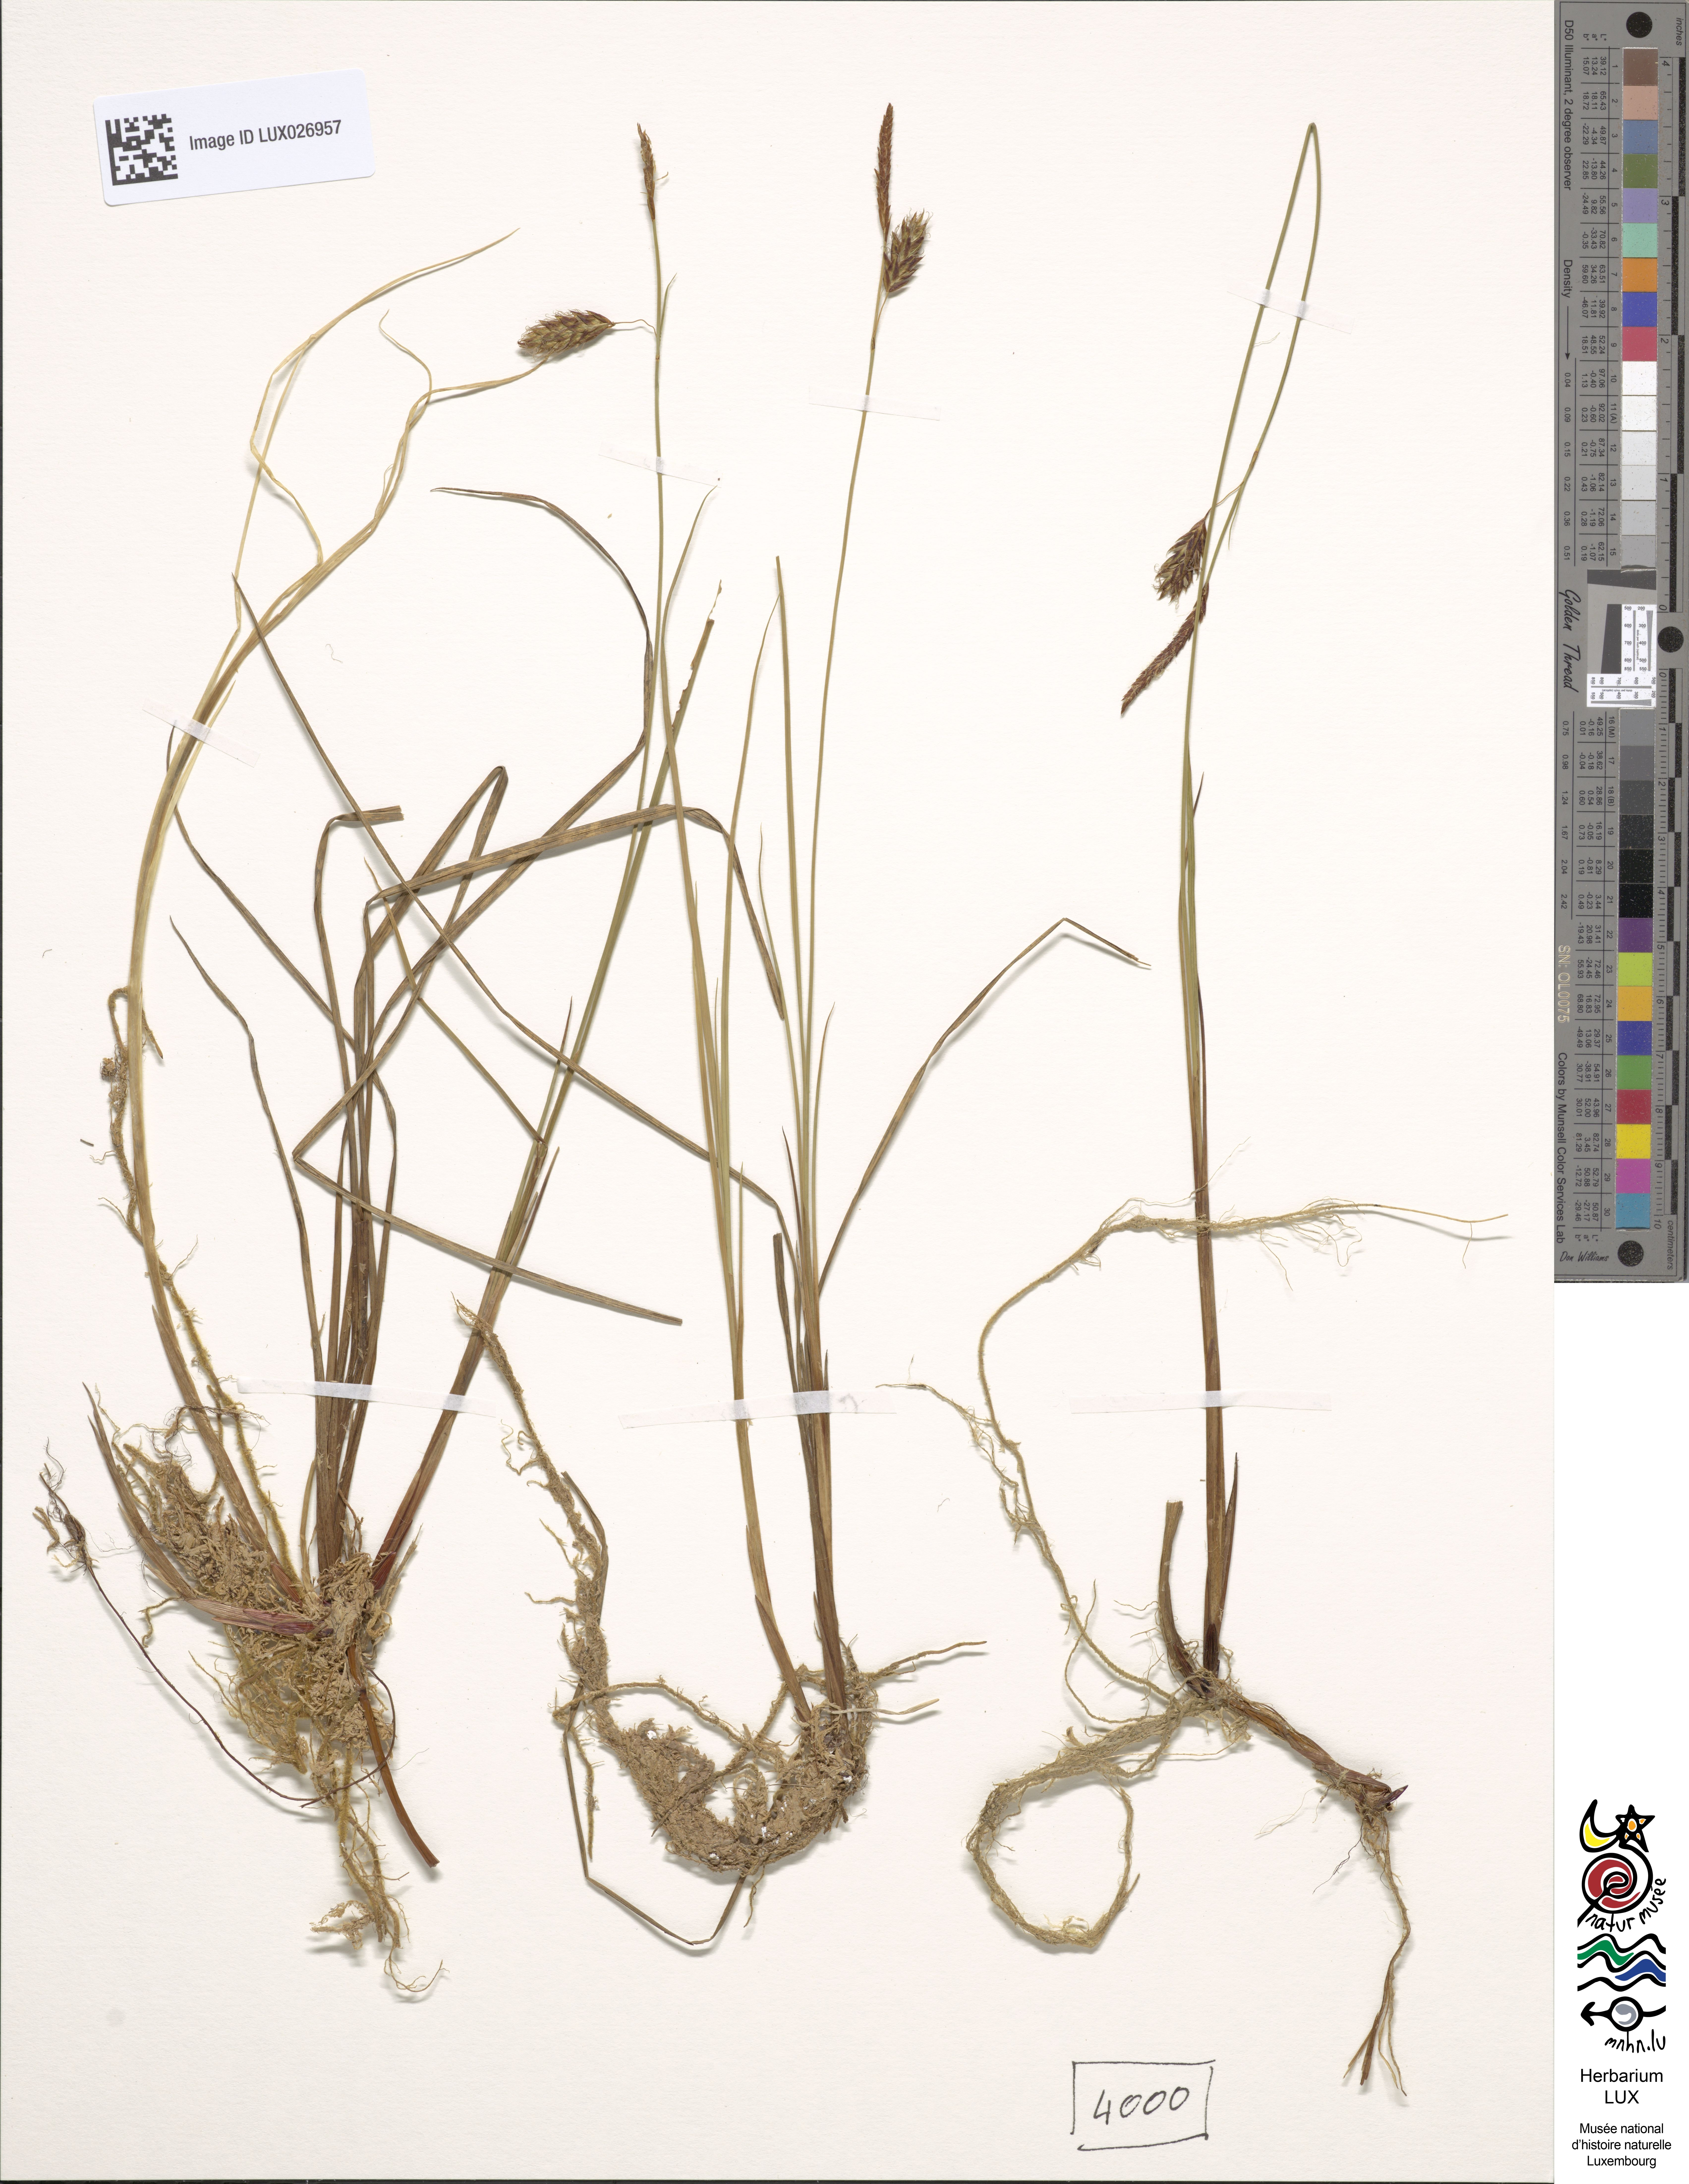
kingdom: Plantae
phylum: Tracheophyta
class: Liliopsida
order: Poales
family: Cyperaceae
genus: Carex
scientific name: Carex limosa
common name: Bog sedge
